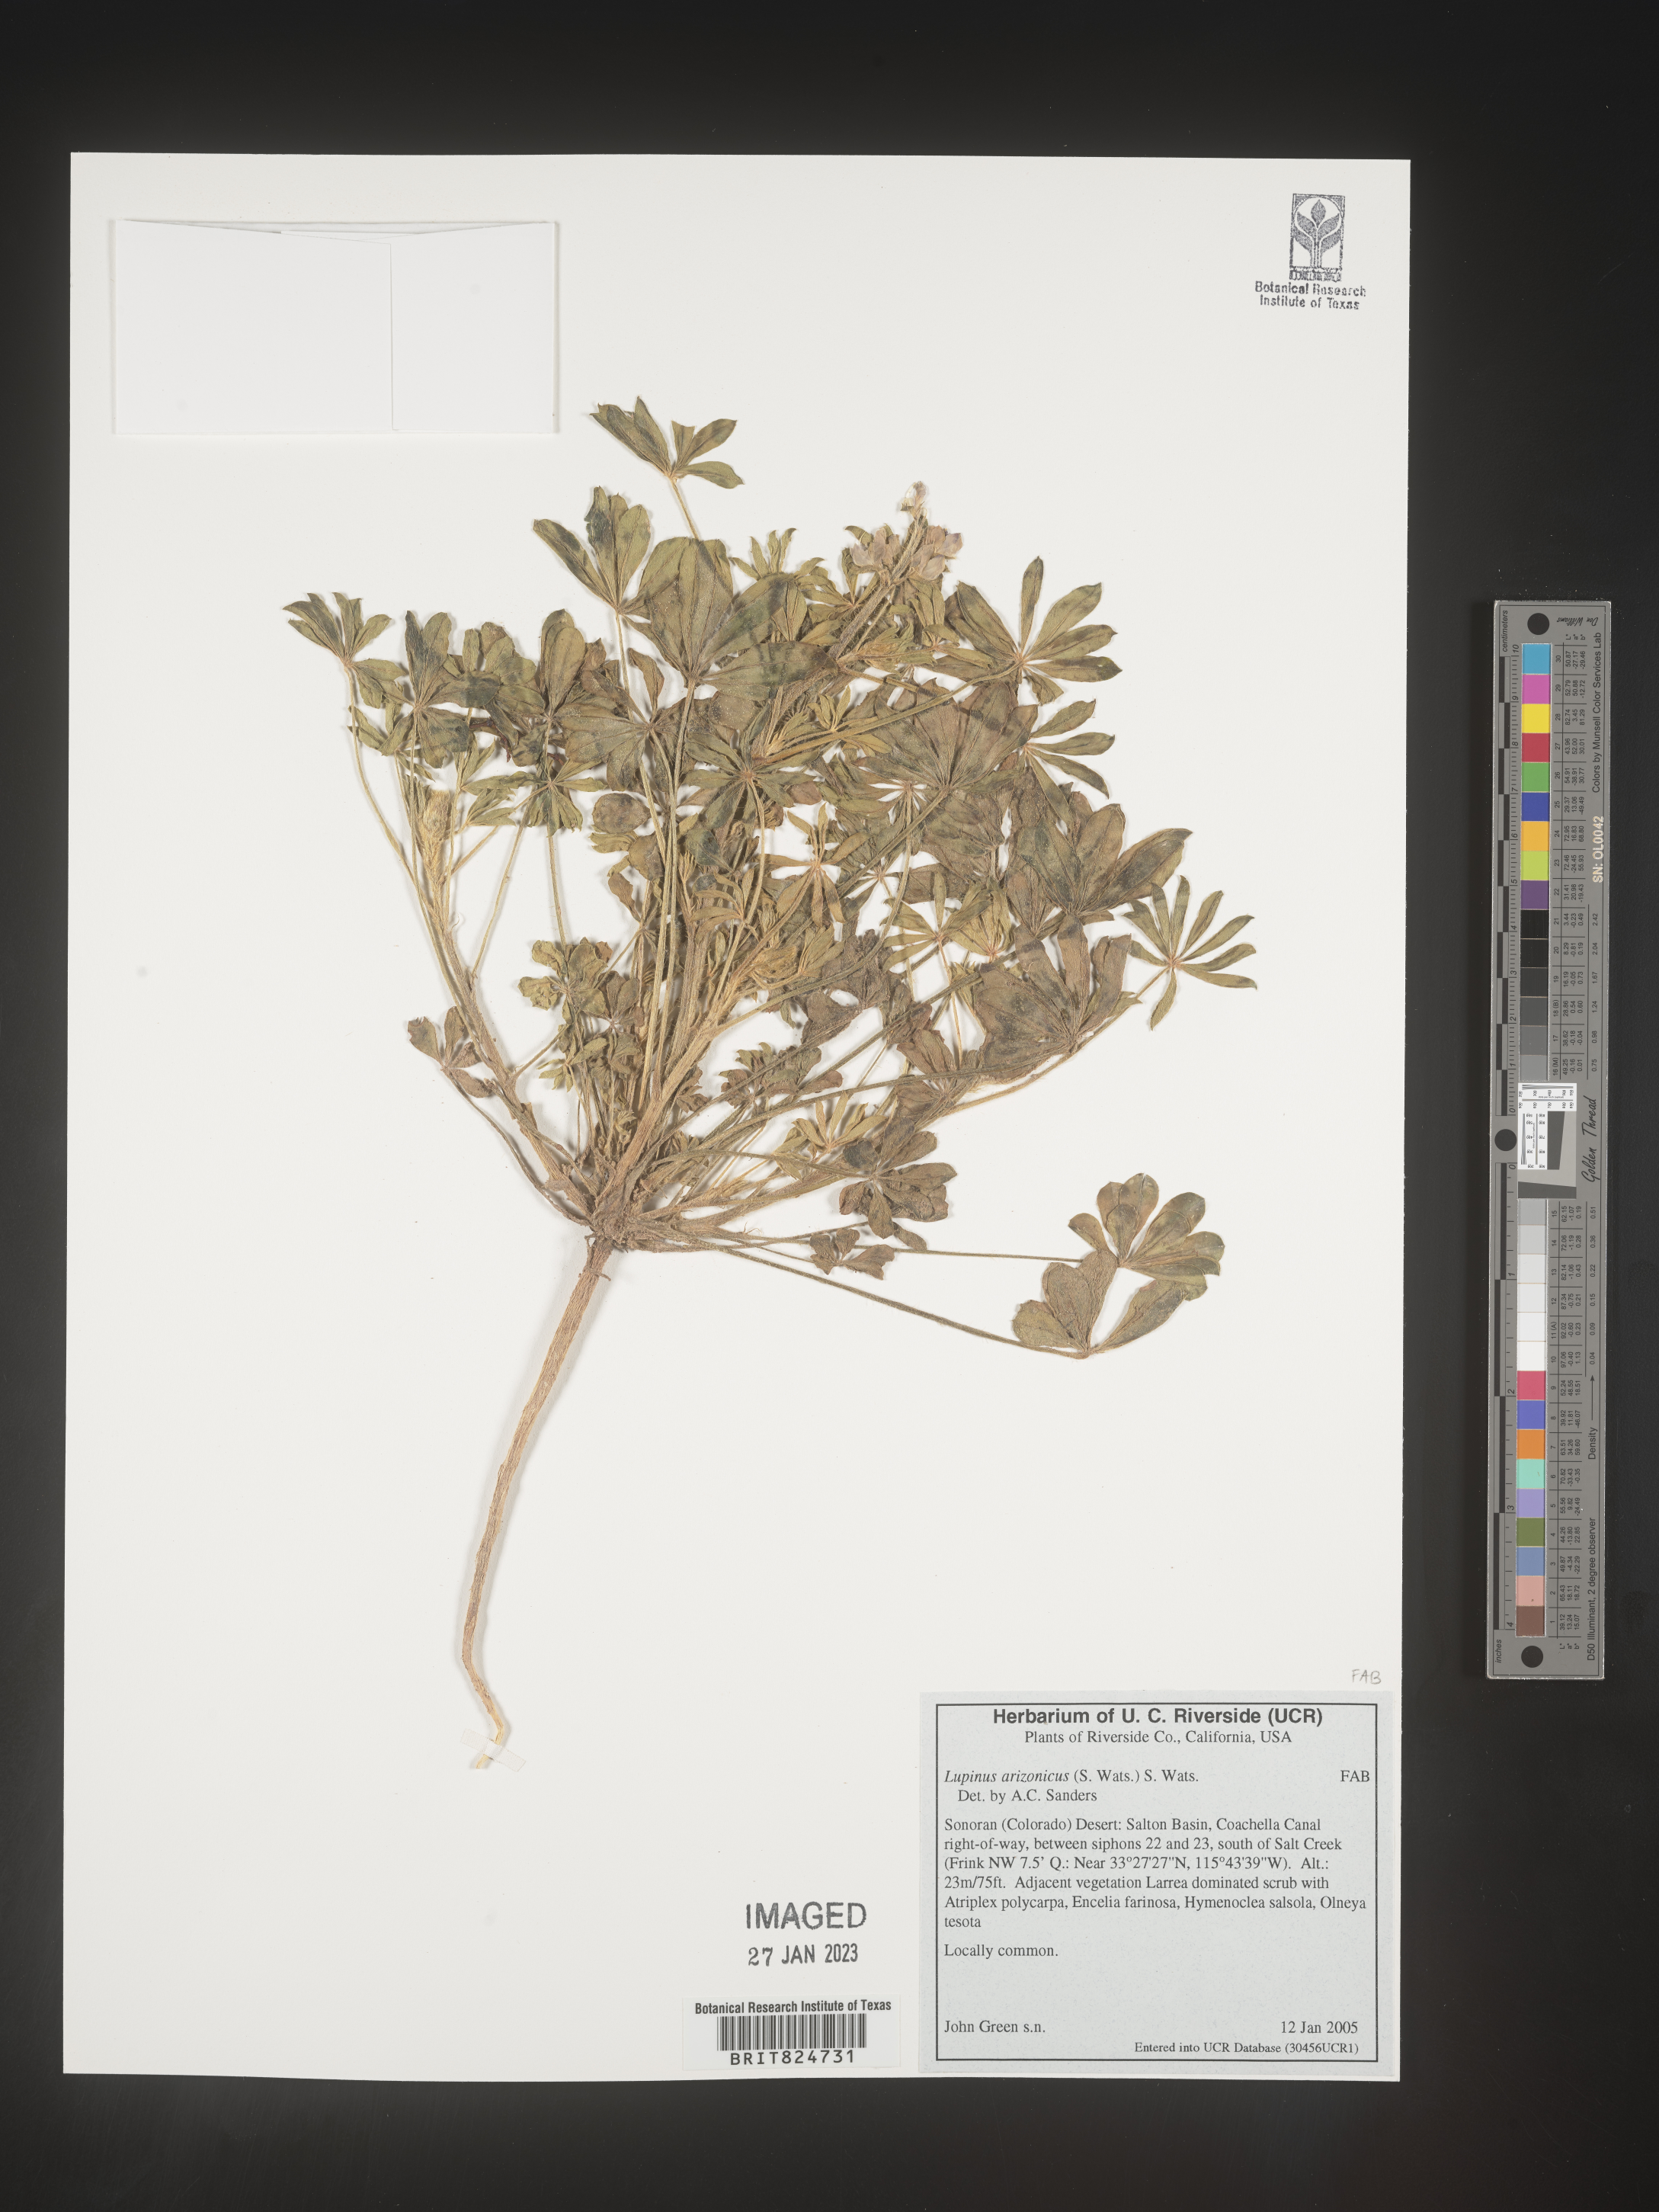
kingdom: Plantae
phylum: Tracheophyta
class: Magnoliopsida
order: Fabales
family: Fabaceae
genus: Lupinus
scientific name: Lupinus arizonicus
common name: Arizona lupine
